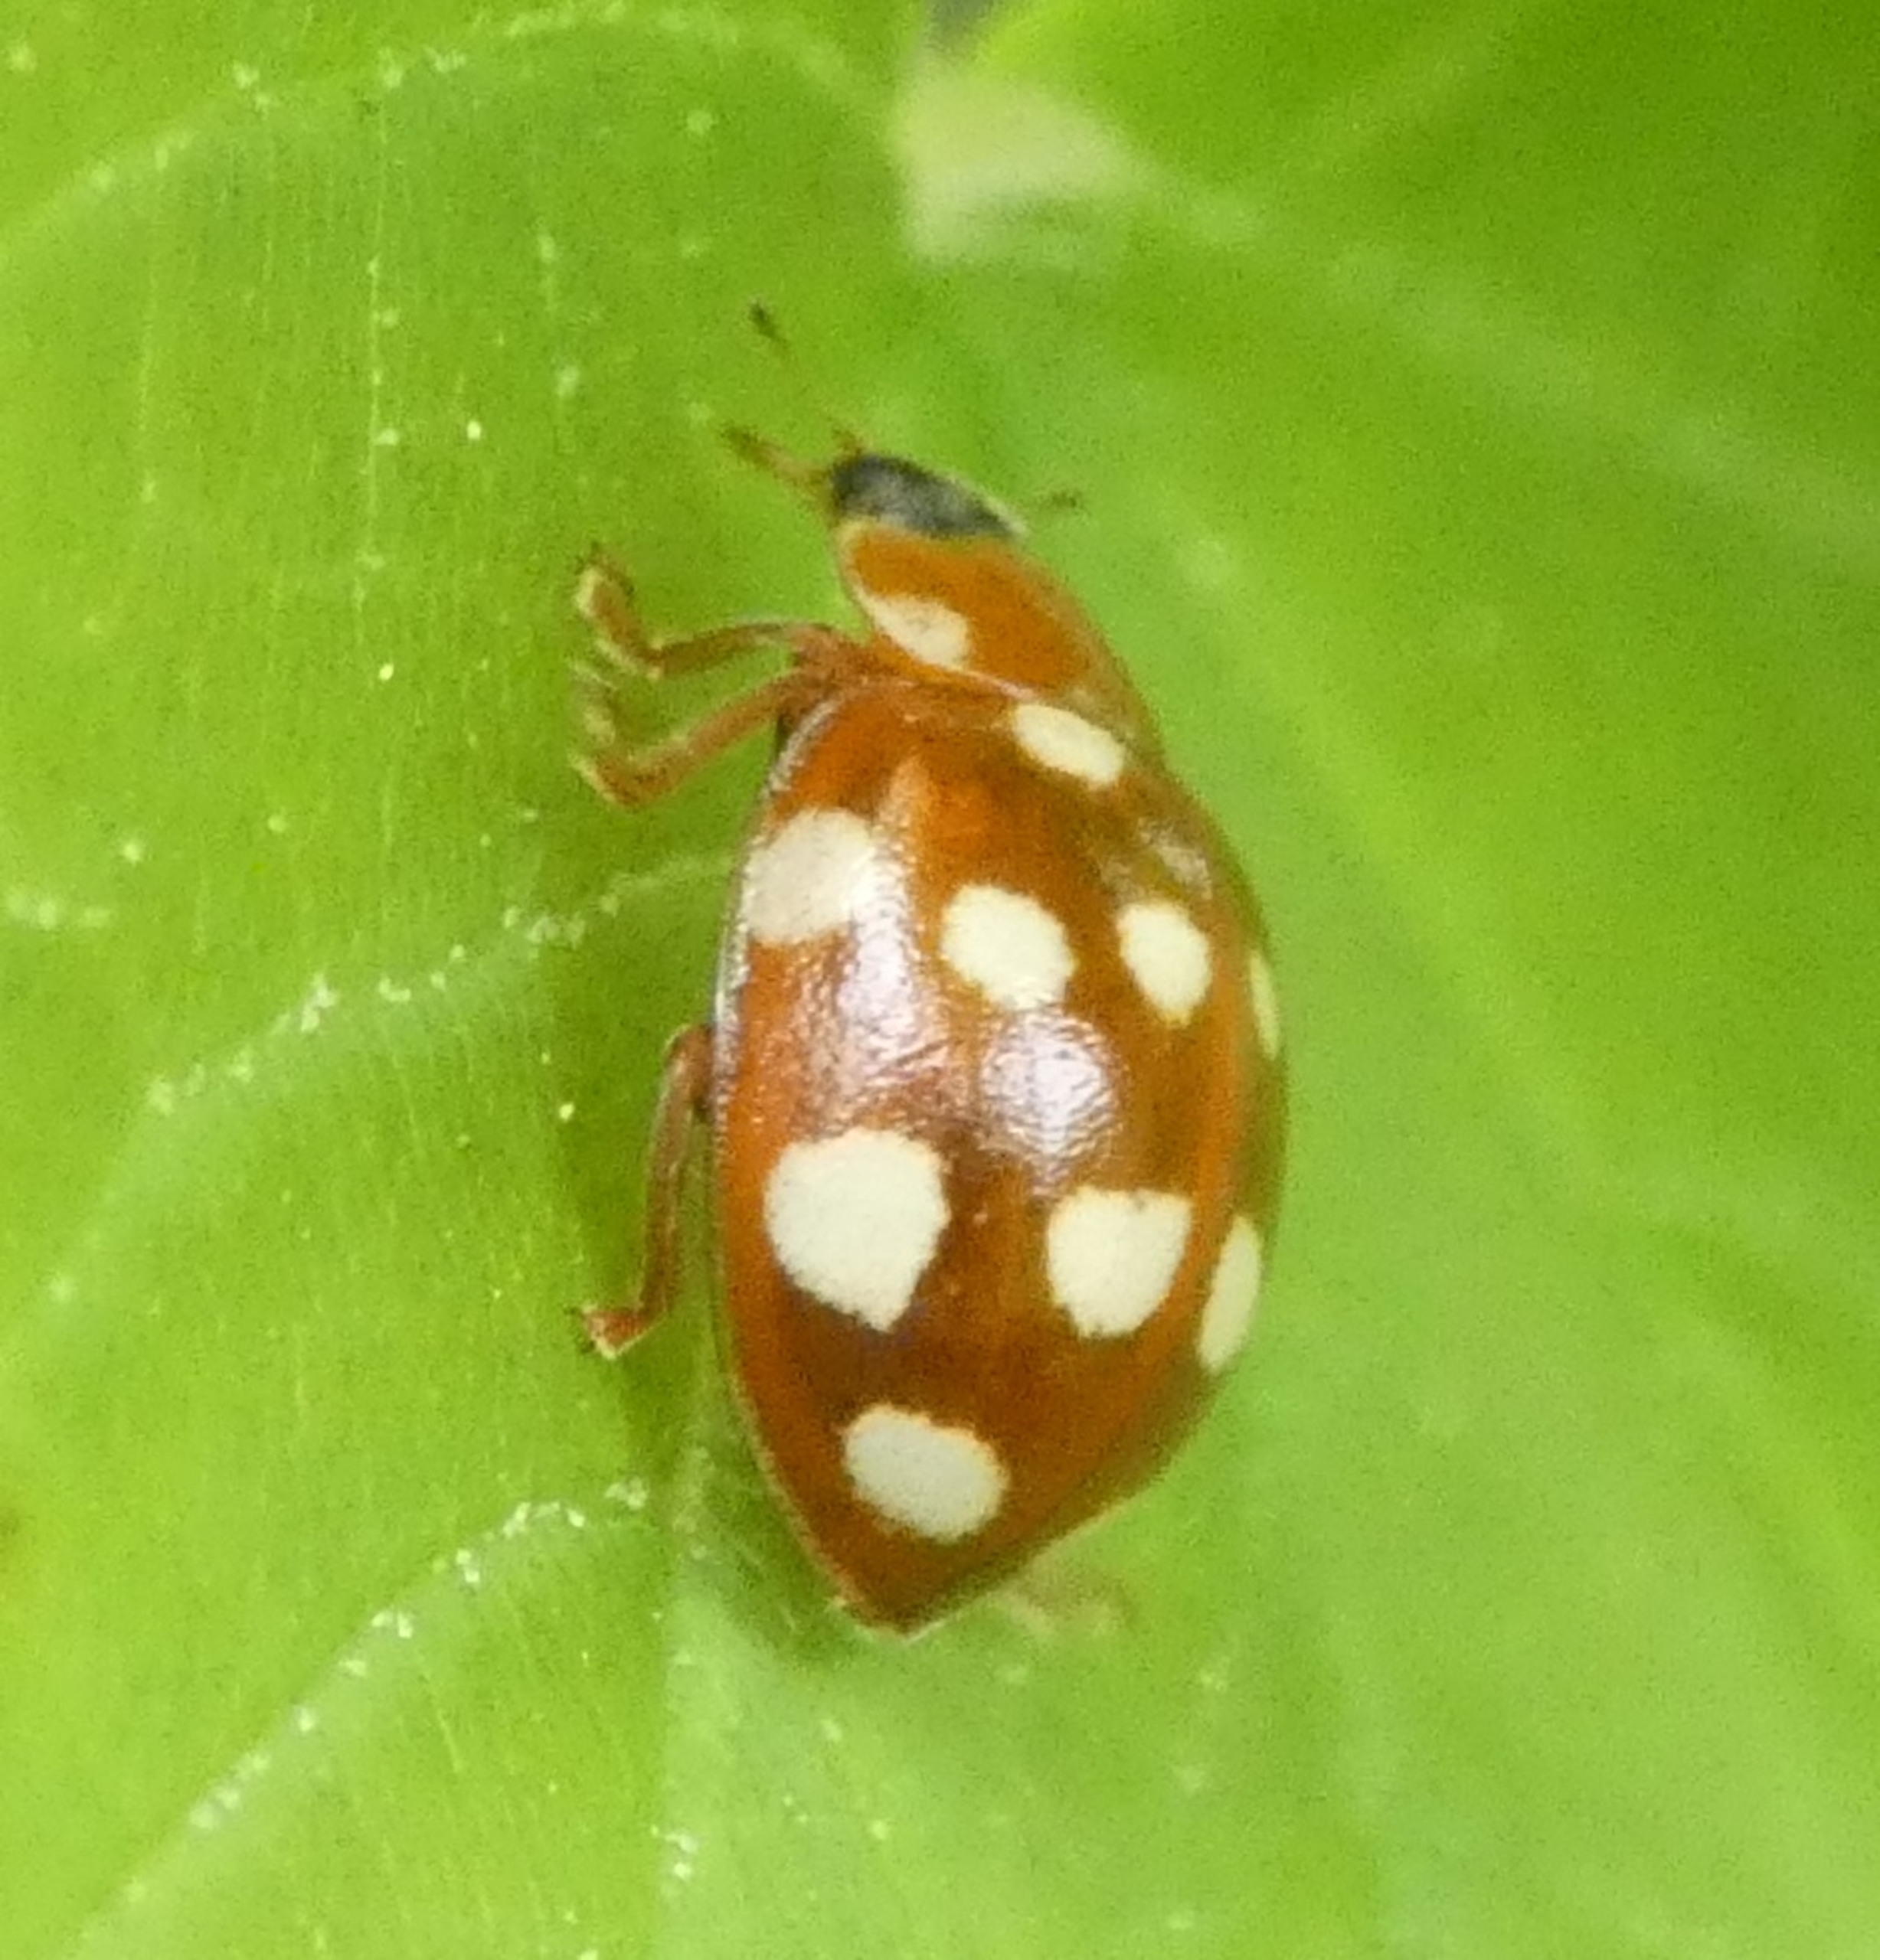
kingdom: Animalia
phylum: Arthropoda
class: Insecta
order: Coleoptera
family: Coccinellidae
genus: Calvia
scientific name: Calvia quatuordecimguttata
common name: Fjortenplettet mariehøne
